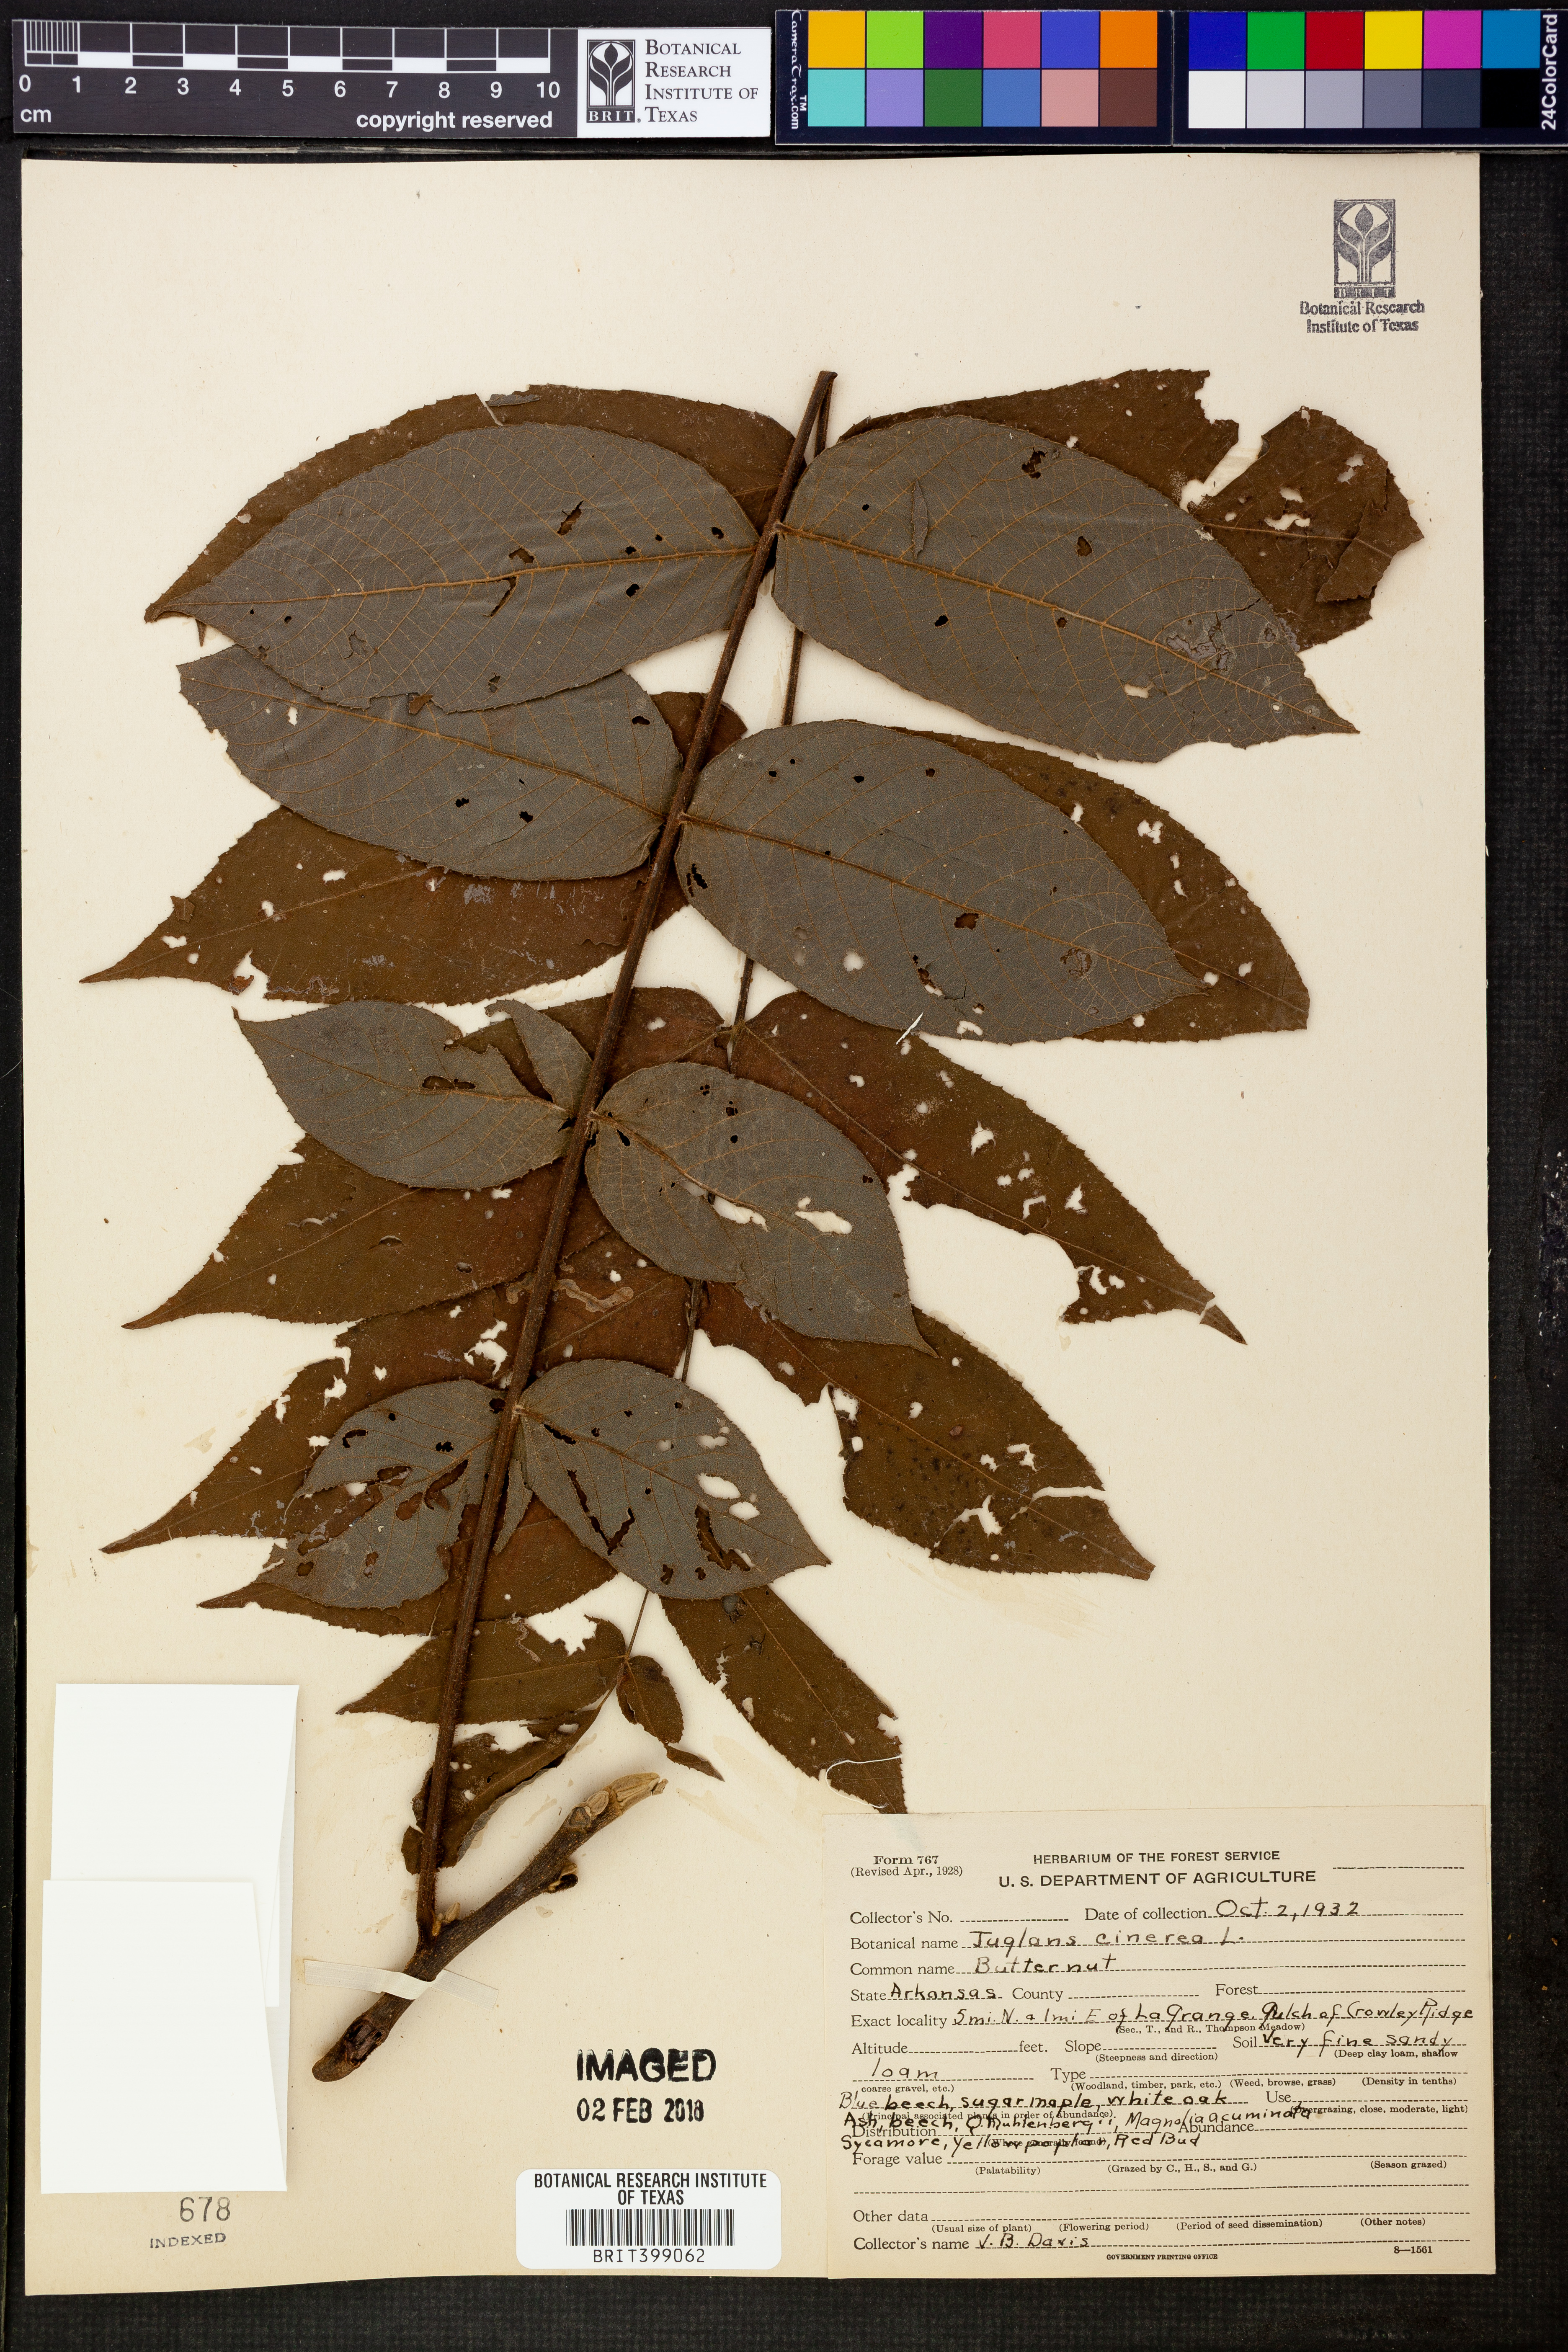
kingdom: Plantae
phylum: Tracheophyta
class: Magnoliopsida
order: Fagales
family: Juglandaceae
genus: Juglans
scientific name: Juglans cinerea
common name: Butternut
